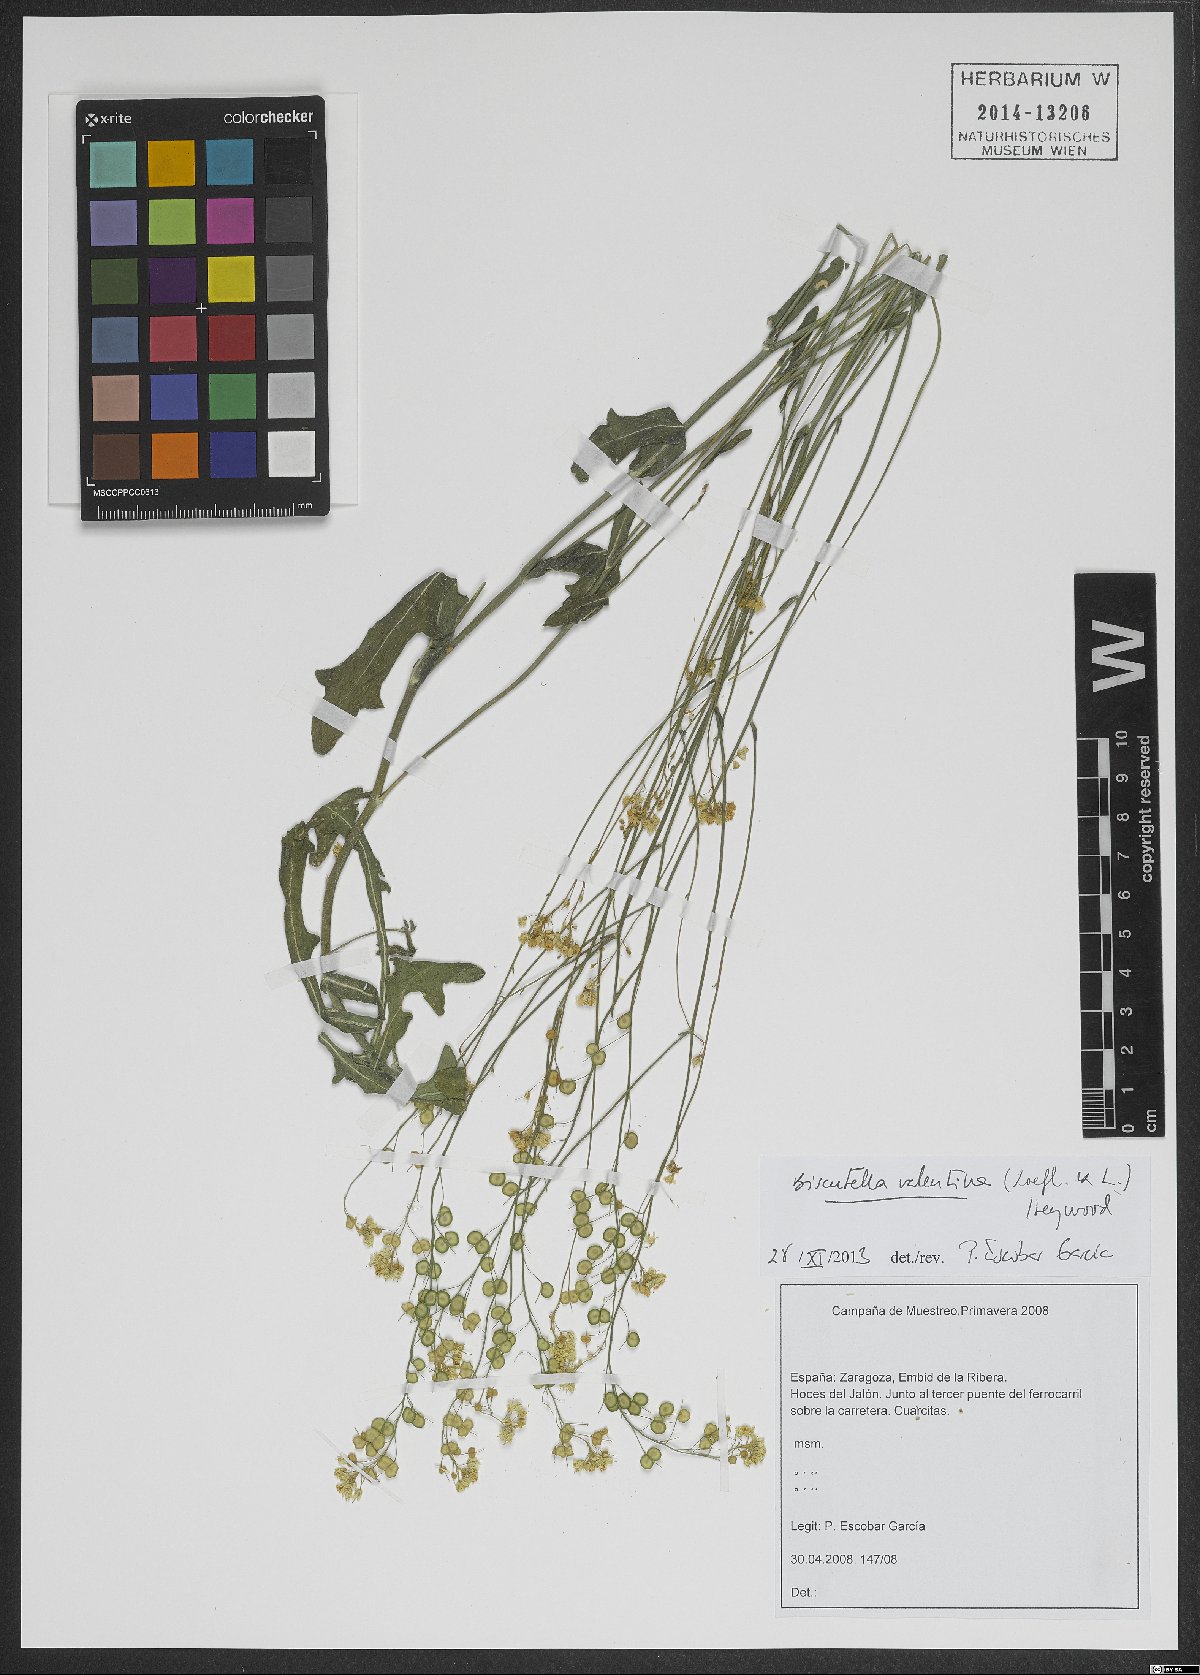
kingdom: Plantae
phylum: Tracheophyta
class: Magnoliopsida
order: Brassicales
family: Brassicaceae
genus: Biscutella
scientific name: Biscutella valentina
